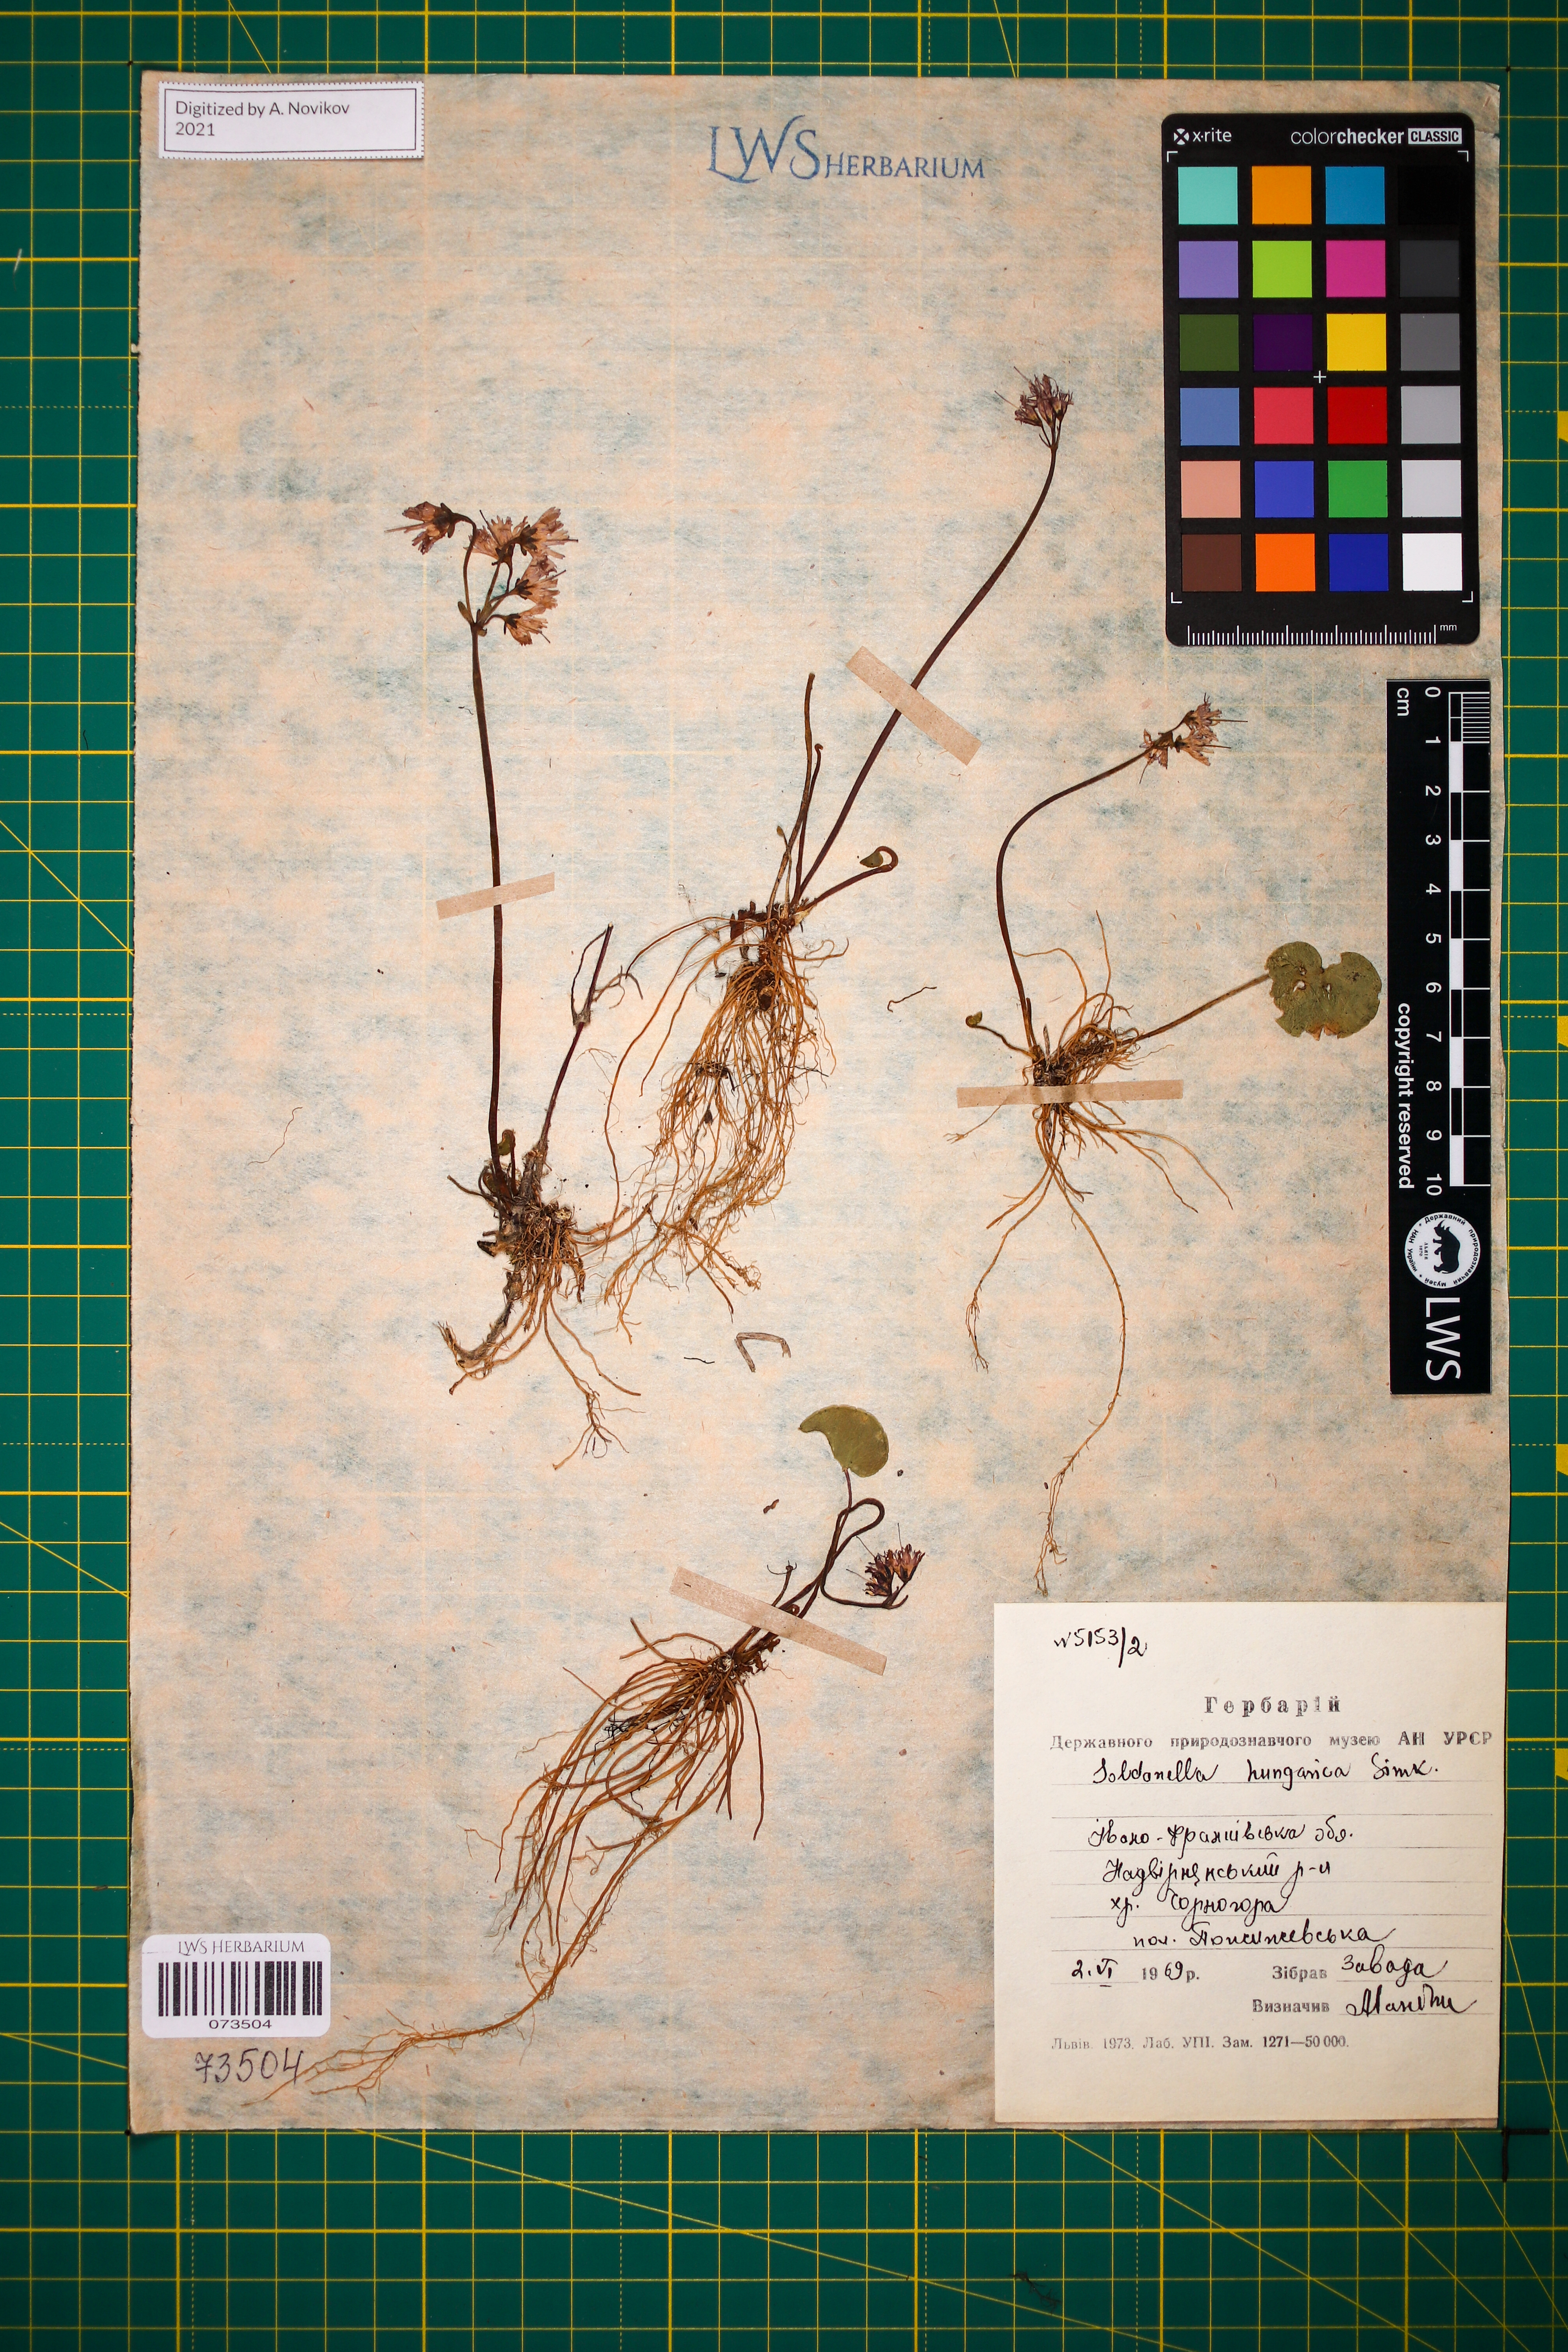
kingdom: Plantae
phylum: Tracheophyta
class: Magnoliopsida
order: Ericales
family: Primulaceae
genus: Soldanella
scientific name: Soldanella hungarica
